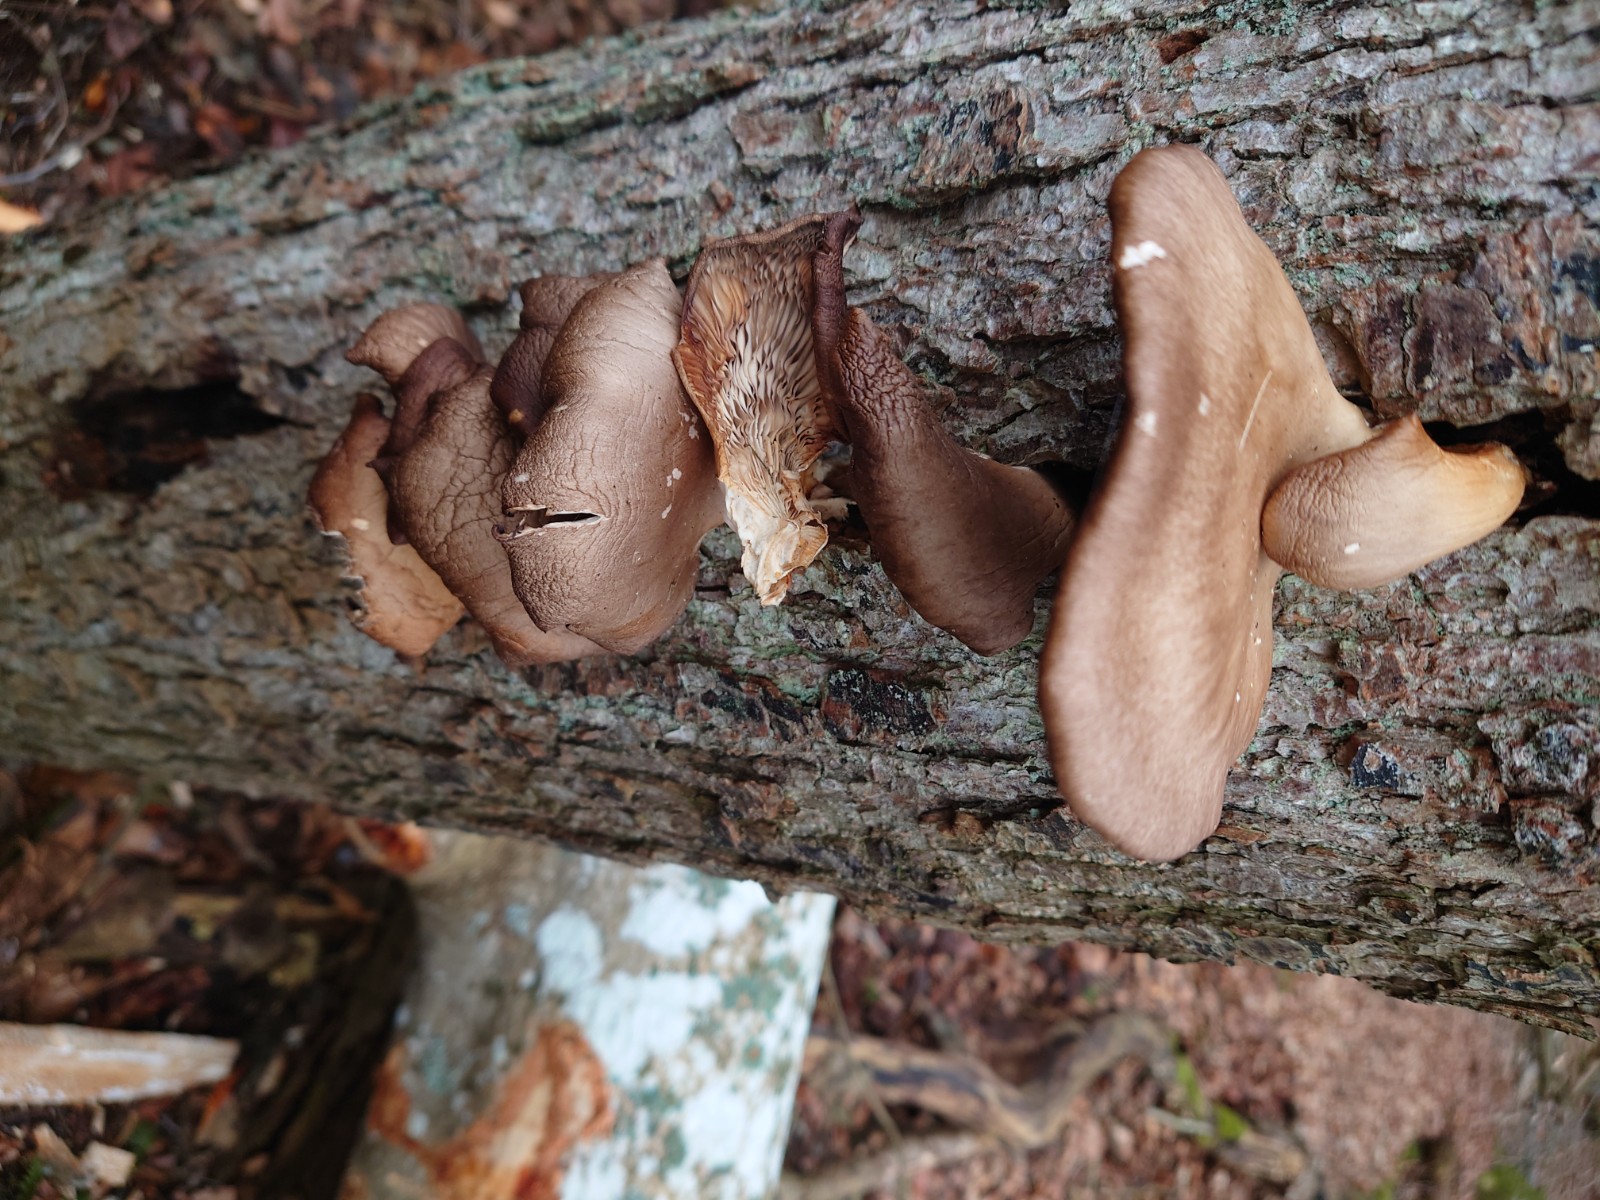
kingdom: Fungi
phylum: Basidiomycota
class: Agaricomycetes
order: Agaricales
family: Pleurotaceae
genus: Pleurotus
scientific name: Pleurotus ostreatus
